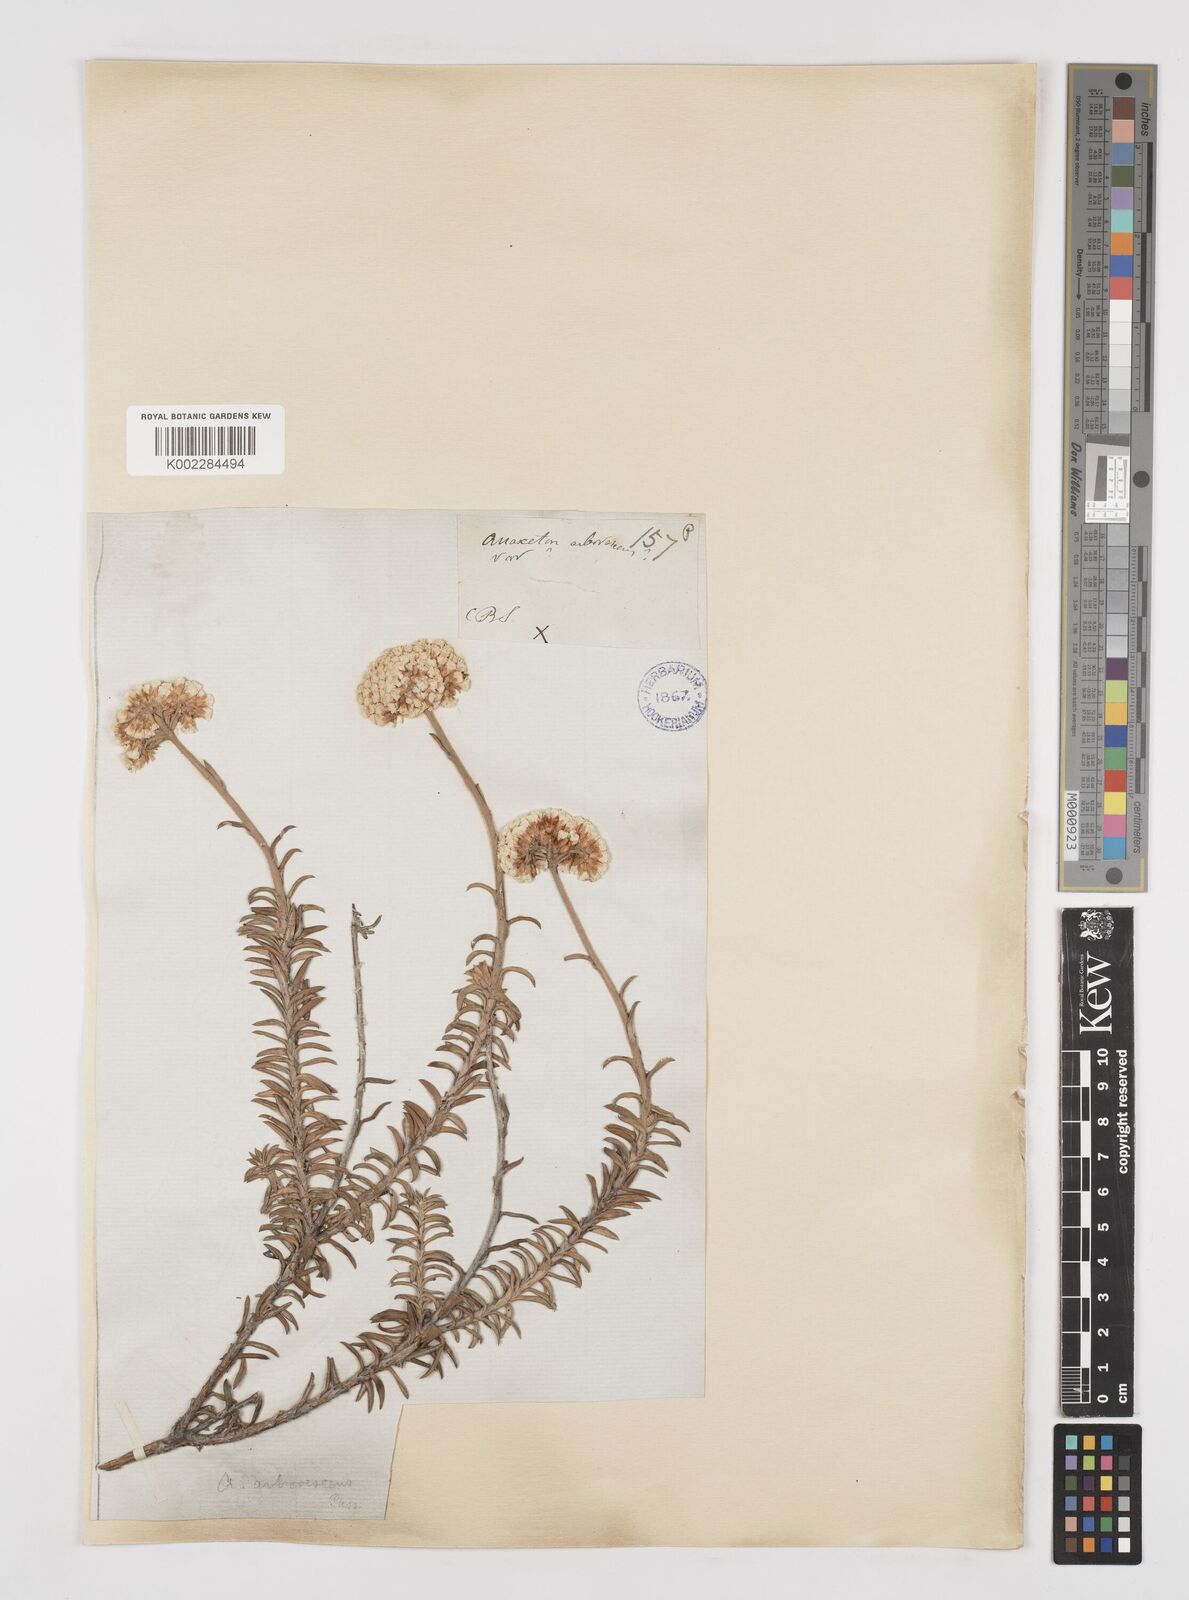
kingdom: Plantae
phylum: Tracheophyta
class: Magnoliopsida
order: Asterales
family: Asteraceae
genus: Anaxeton
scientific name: Anaxeton arborescens
